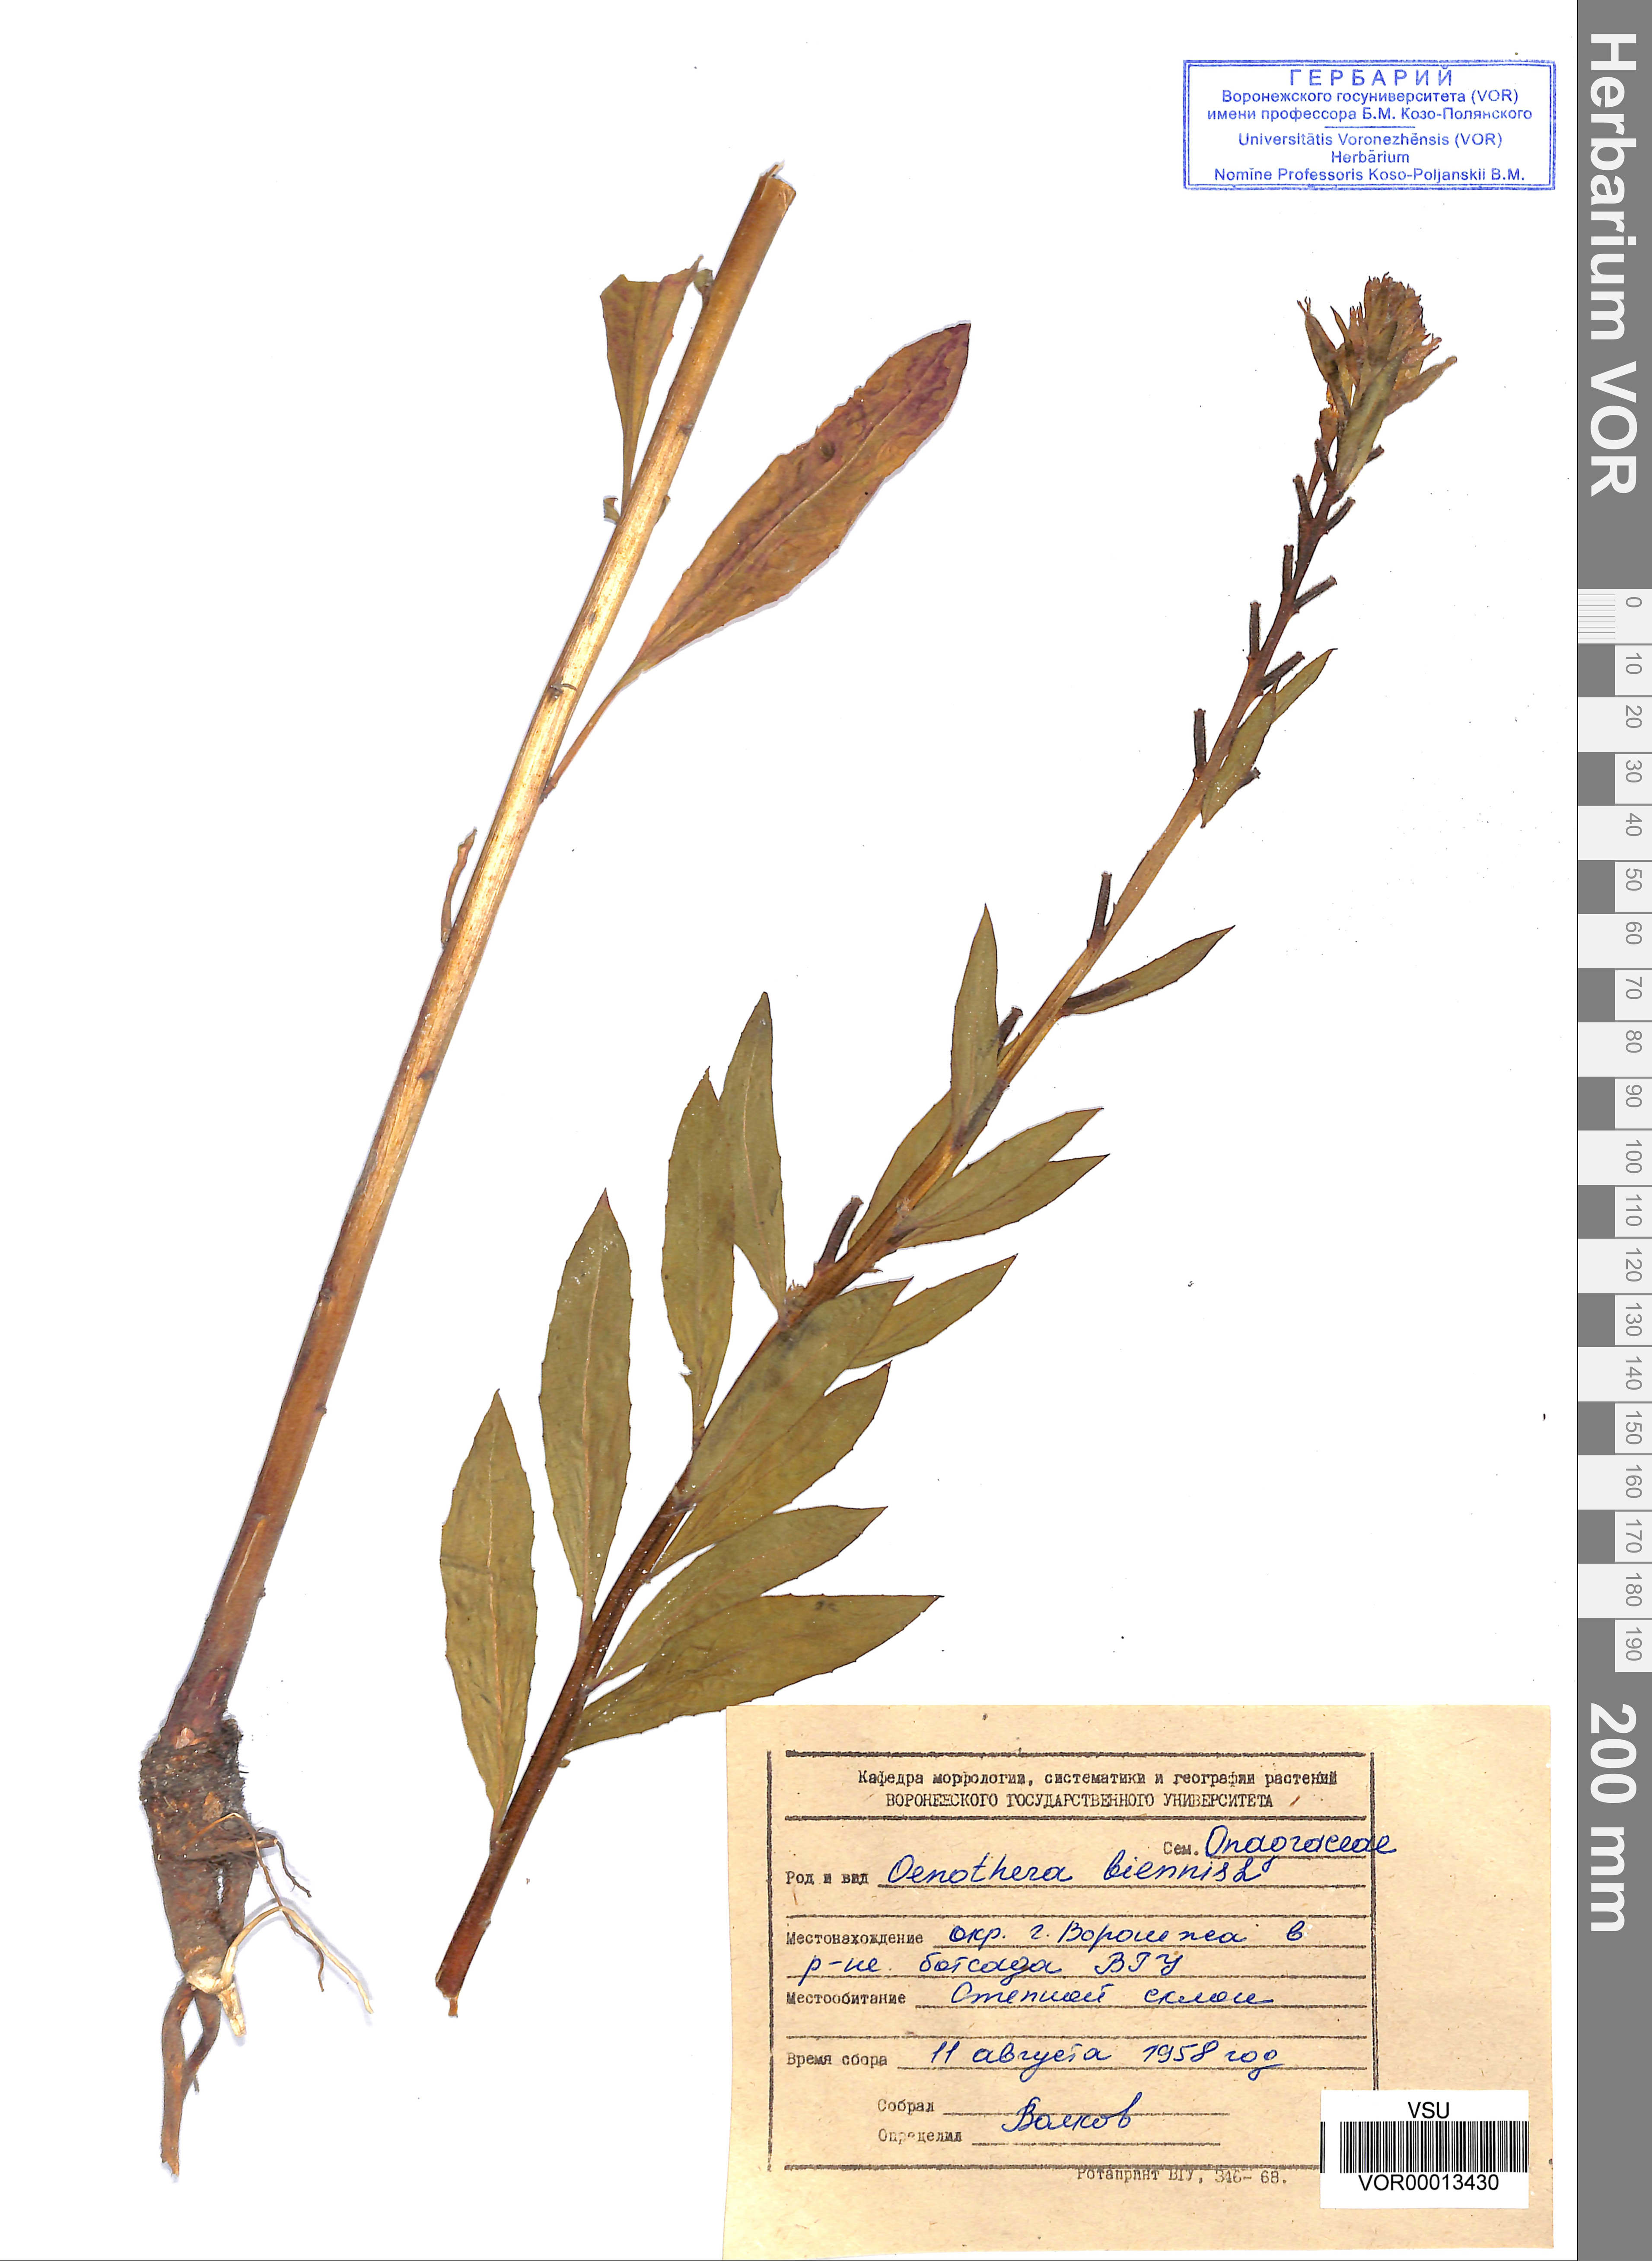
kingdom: Plantae
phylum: Tracheophyta
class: Magnoliopsida
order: Myrtales
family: Onagraceae
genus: Oenothera
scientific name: Oenothera biennis
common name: Common evening-primrose
